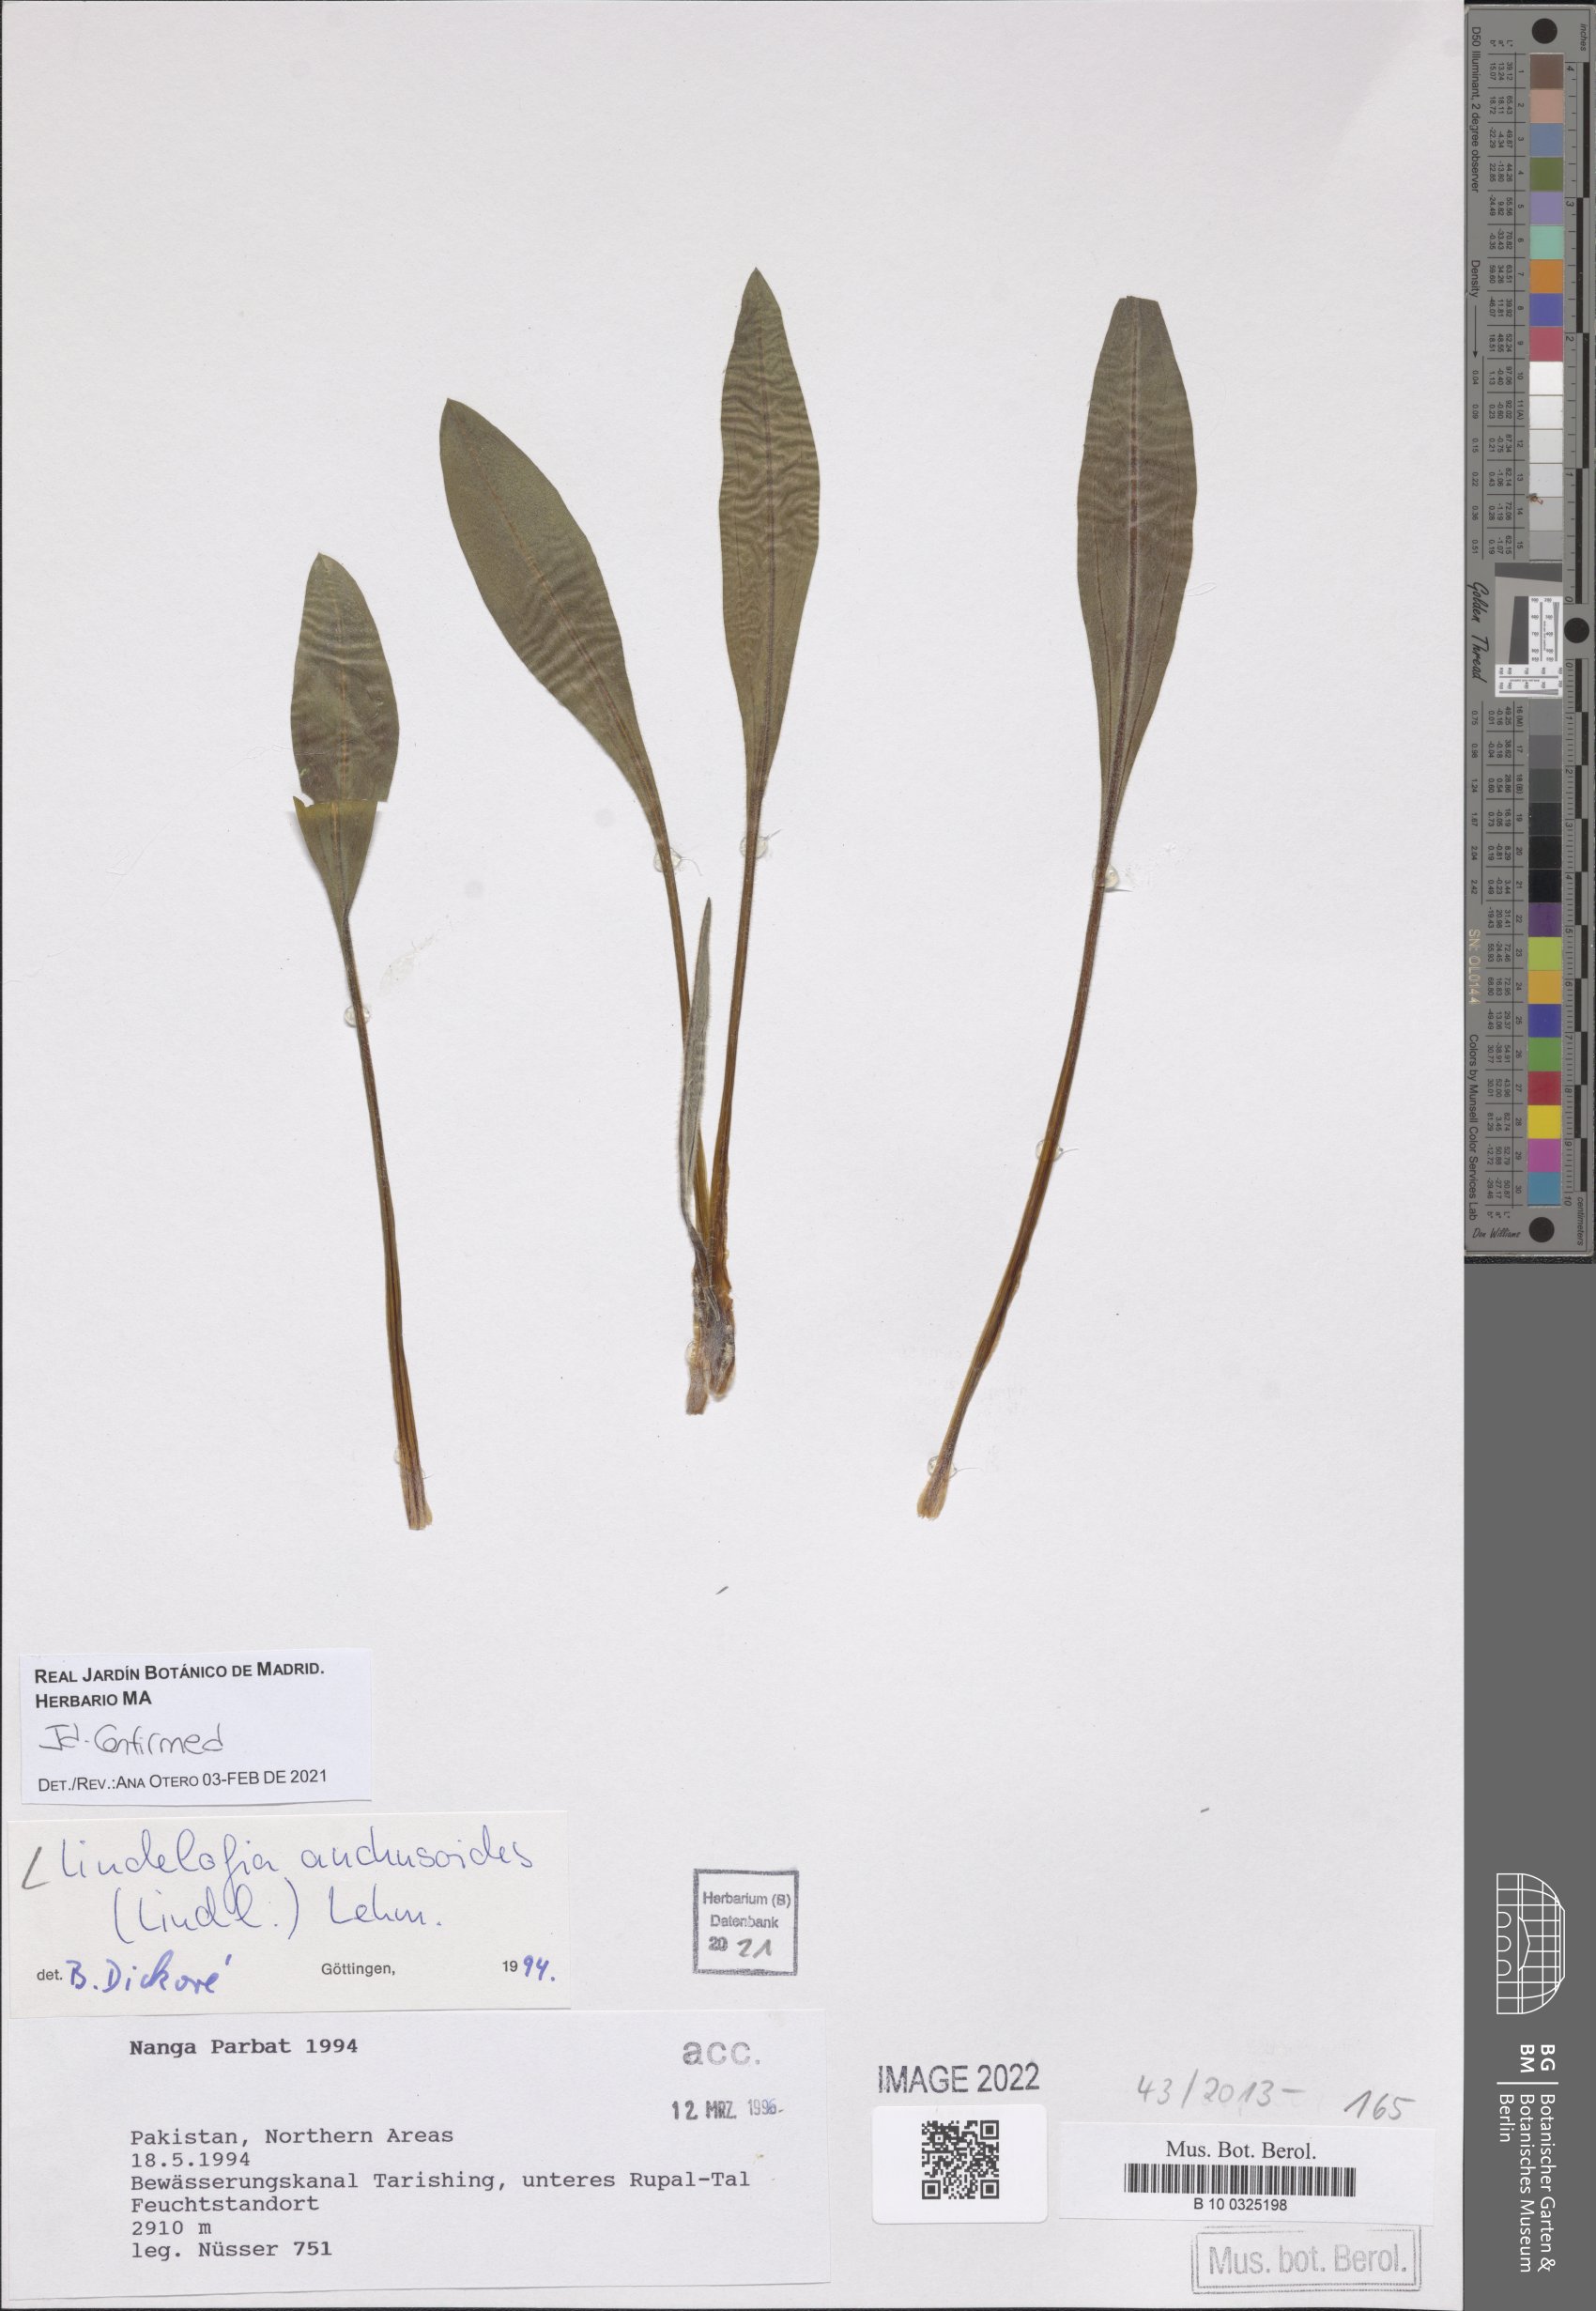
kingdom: Plantae
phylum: Tracheophyta
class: Magnoliopsida
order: Boraginales
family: Boraginaceae
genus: Lindelofia
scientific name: Lindelofia anchusoides
